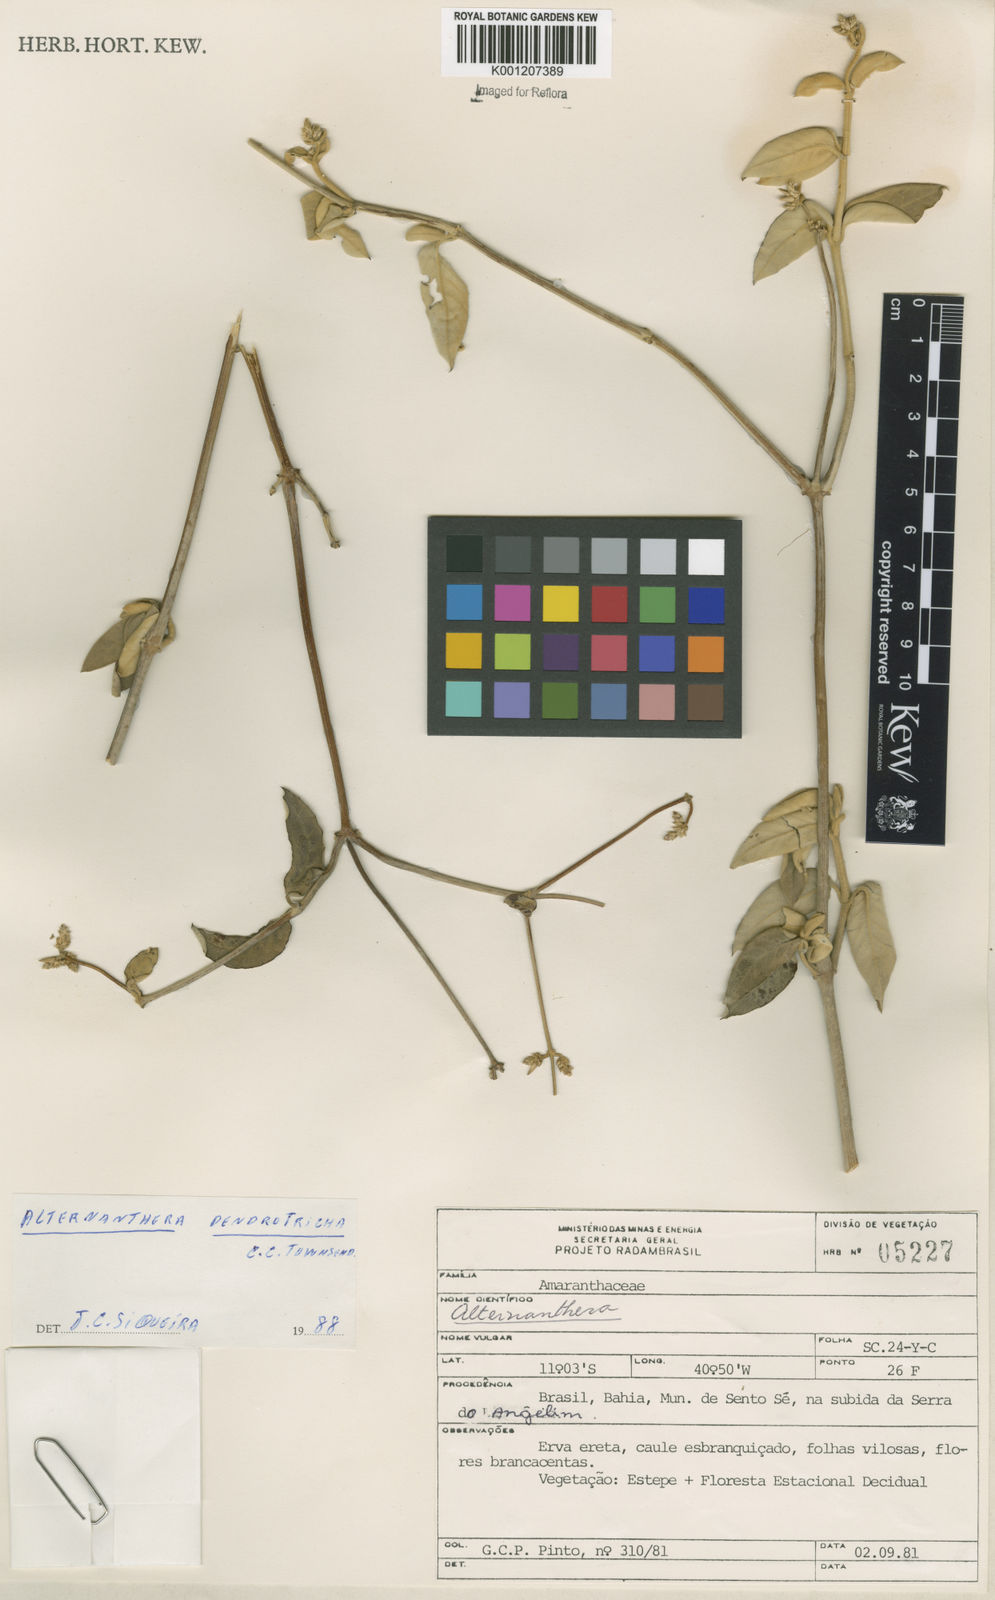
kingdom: Plantae
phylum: Tracheophyta
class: Magnoliopsida
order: Caryophyllales
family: Amaranthaceae
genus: Alternanthera
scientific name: Alternanthera dendrotricha
